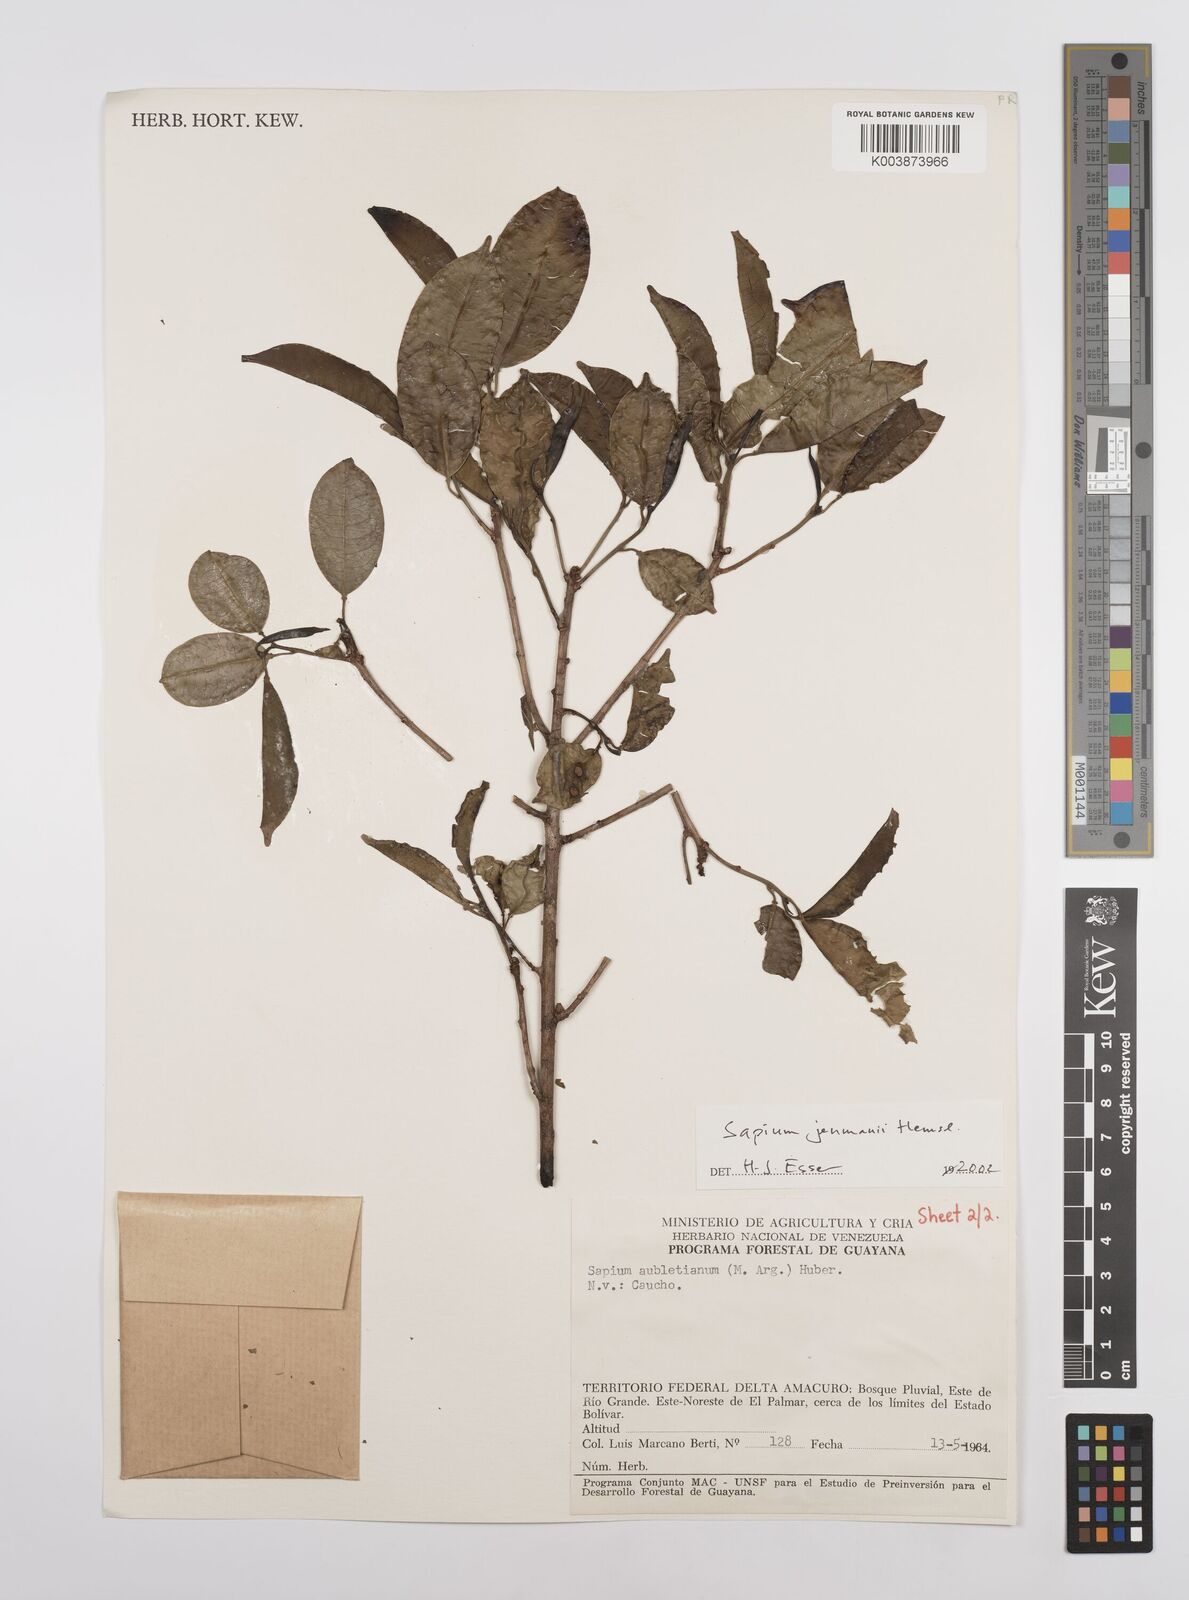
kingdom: Plantae
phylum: Tracheophyta
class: Magnoliopsida
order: Malpighiales
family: Euphorbiaceae
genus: Sapium
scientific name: Sapium jenmannii
